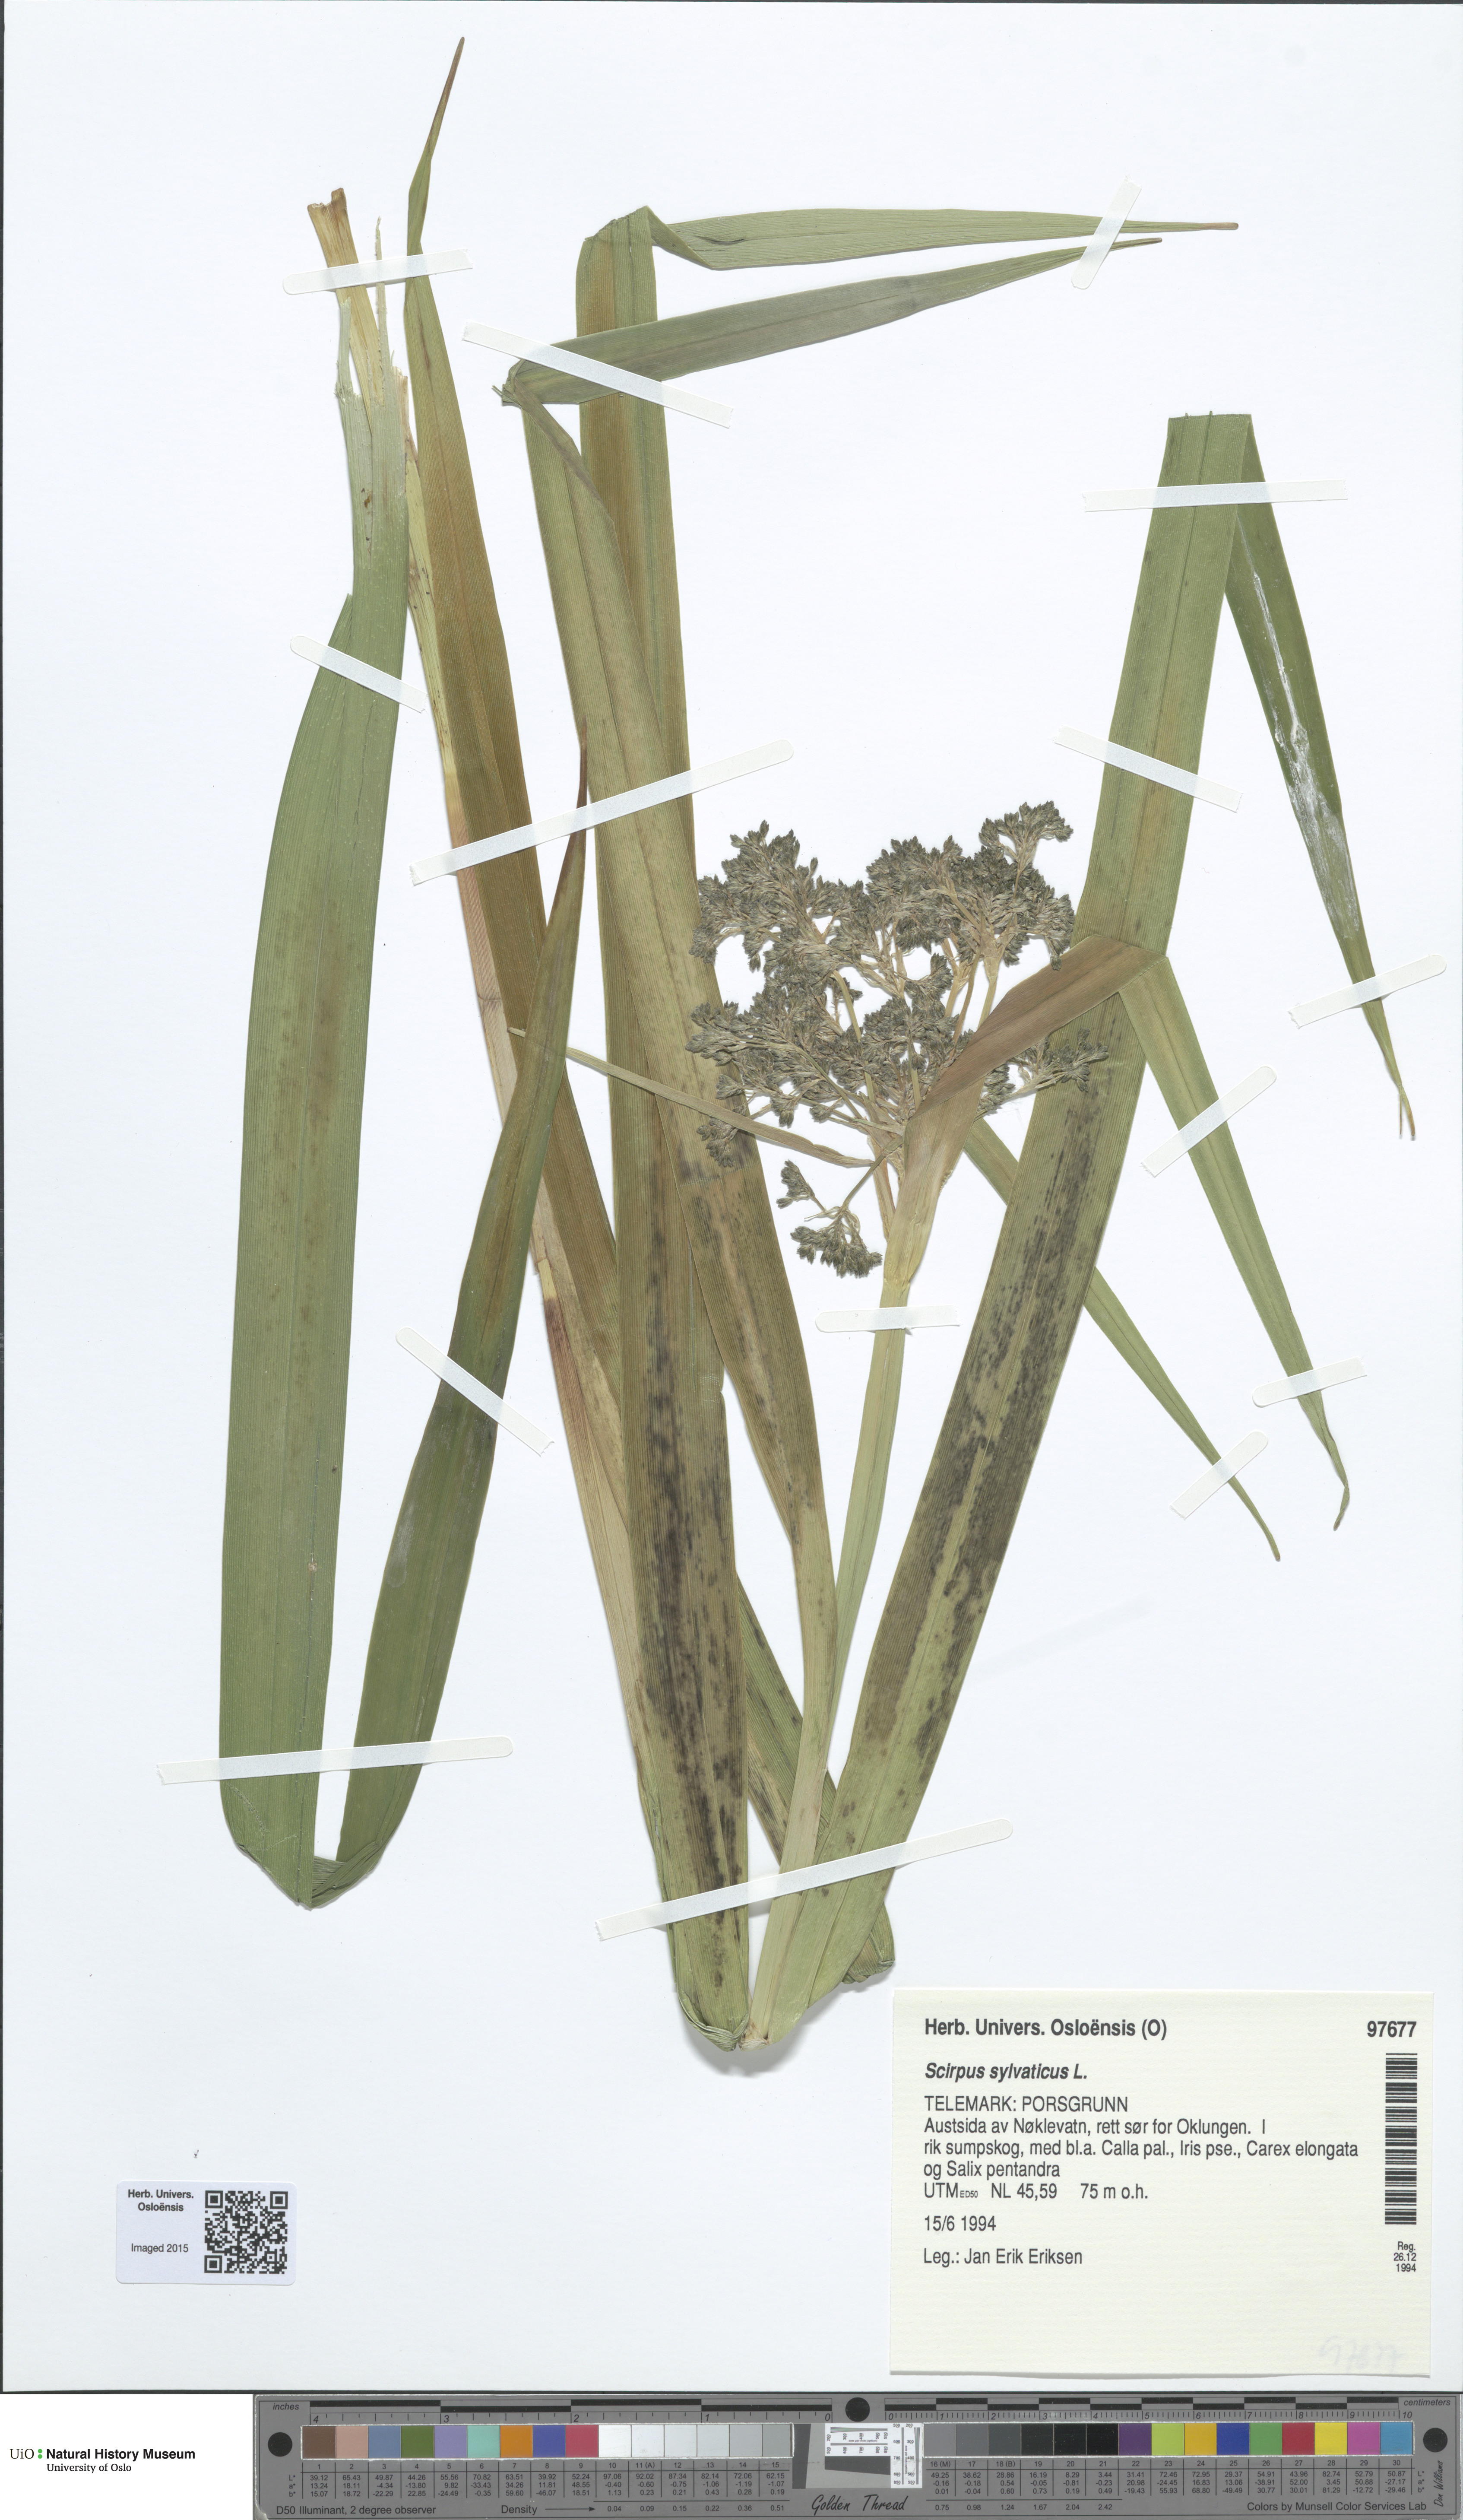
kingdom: Plantae
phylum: Tracheophyta
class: Liliopsida
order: Poales
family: Cyperaceae
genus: Scirpus
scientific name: Scirpus sylvaticus
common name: Wood club-rush
